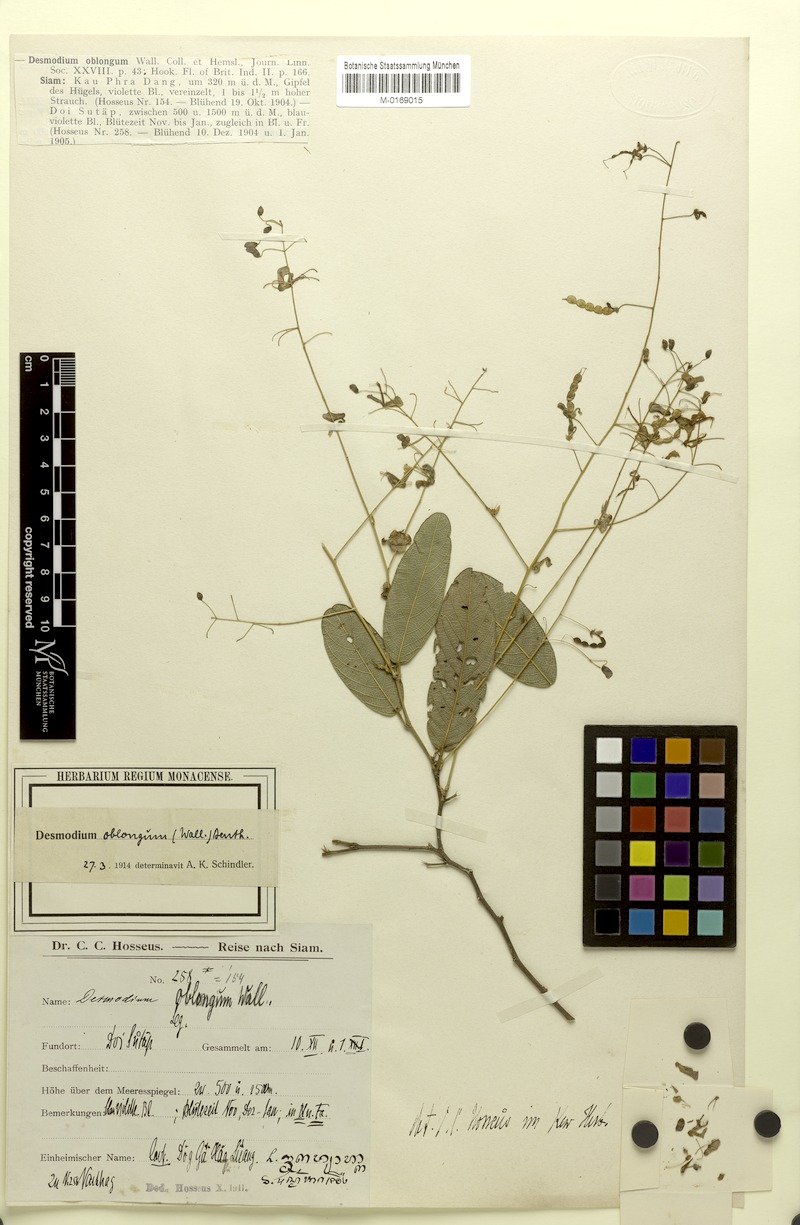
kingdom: Plantae
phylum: Tracheophyta
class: Magnoliopsida
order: Fabales
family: Fabaceae
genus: Uraria
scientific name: Uraria oblonga
